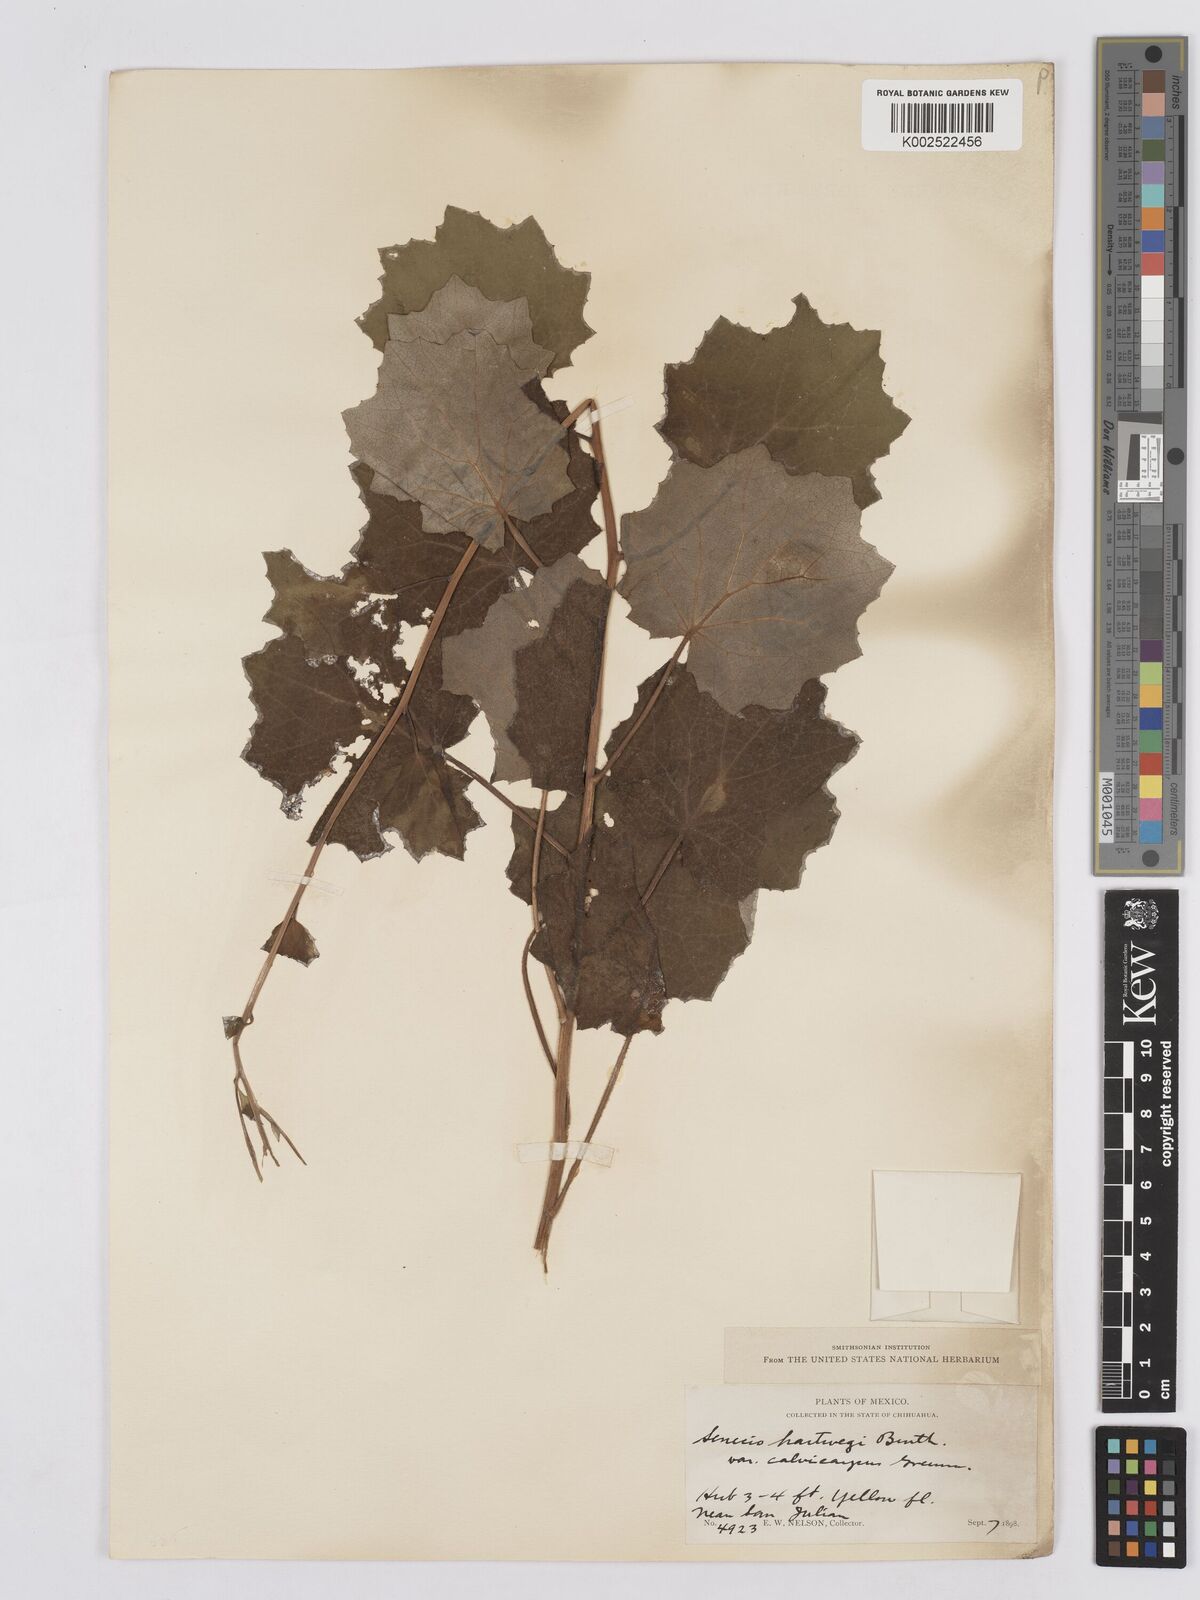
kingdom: Plantae
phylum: Tracheophyta
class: Magnoliopsida
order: Asterales
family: Asteraceae
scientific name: Asteraceae
